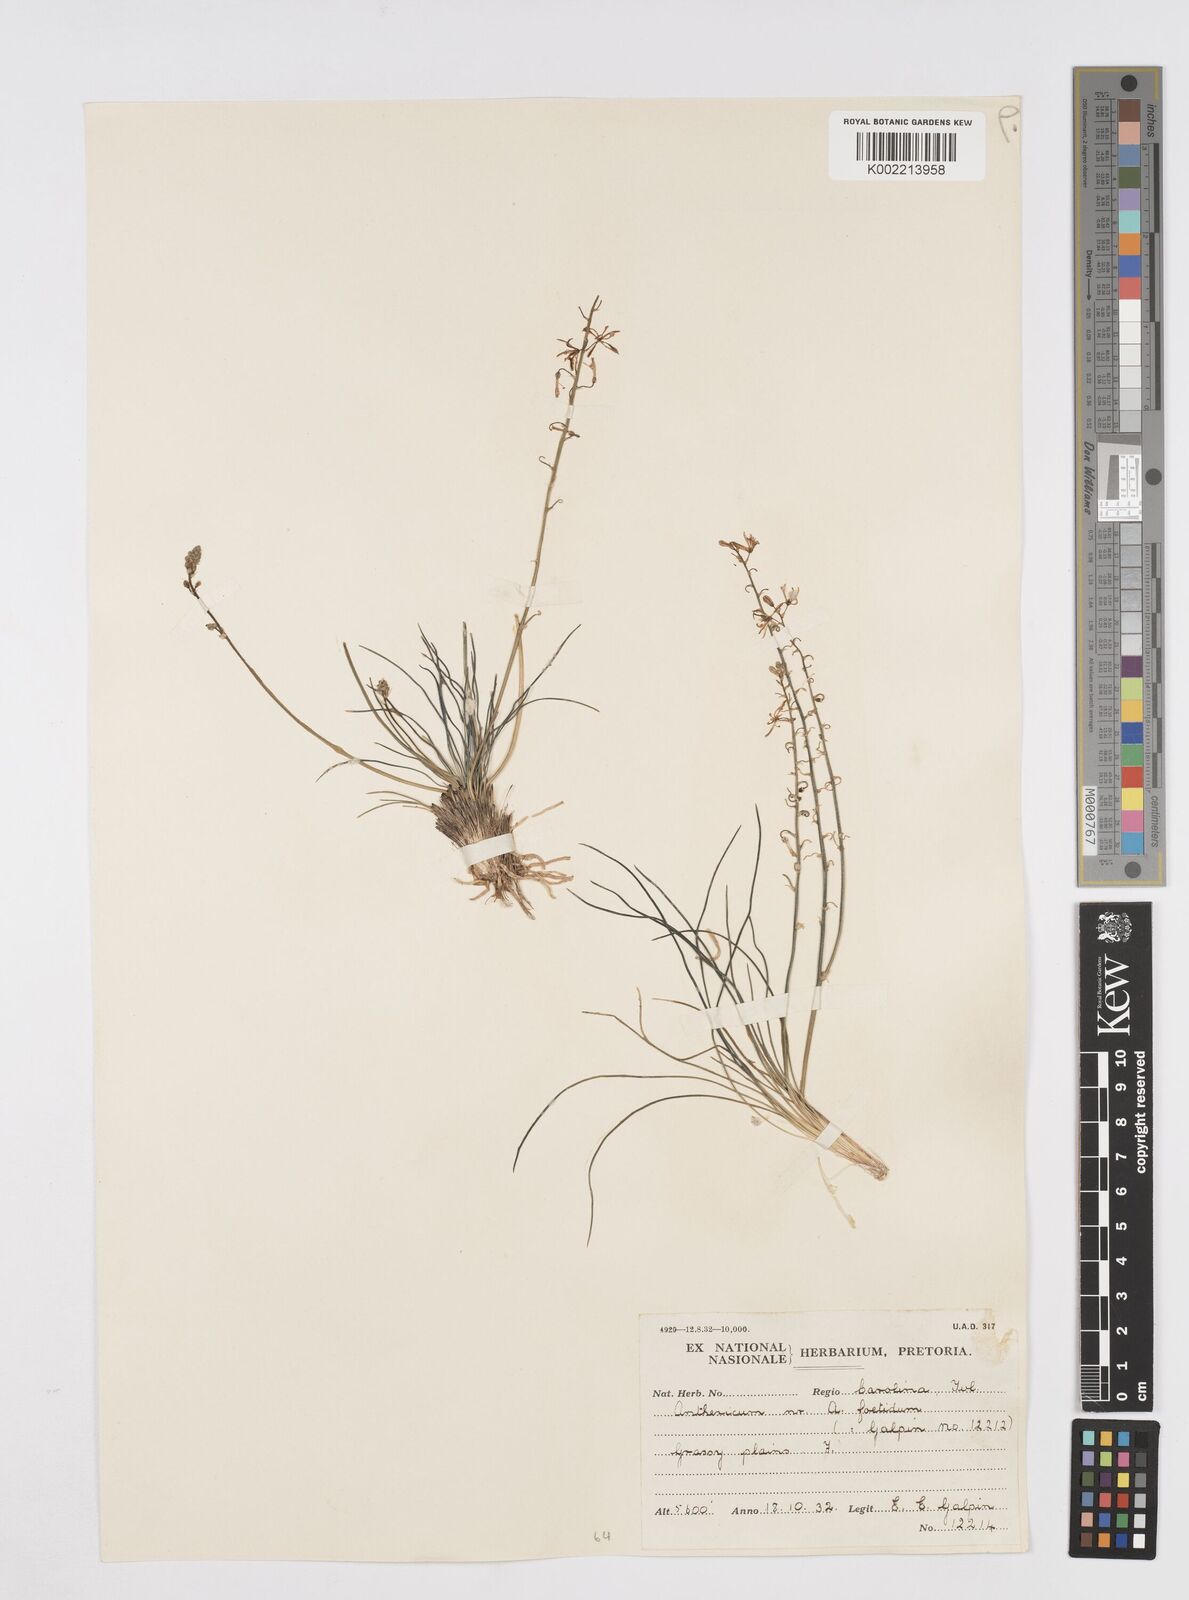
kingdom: Plantae
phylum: Tracheophyta
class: Liliopsida
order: Asparagales
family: Asphodelaceae
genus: Trachyandra
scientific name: Trachyandra asperata
